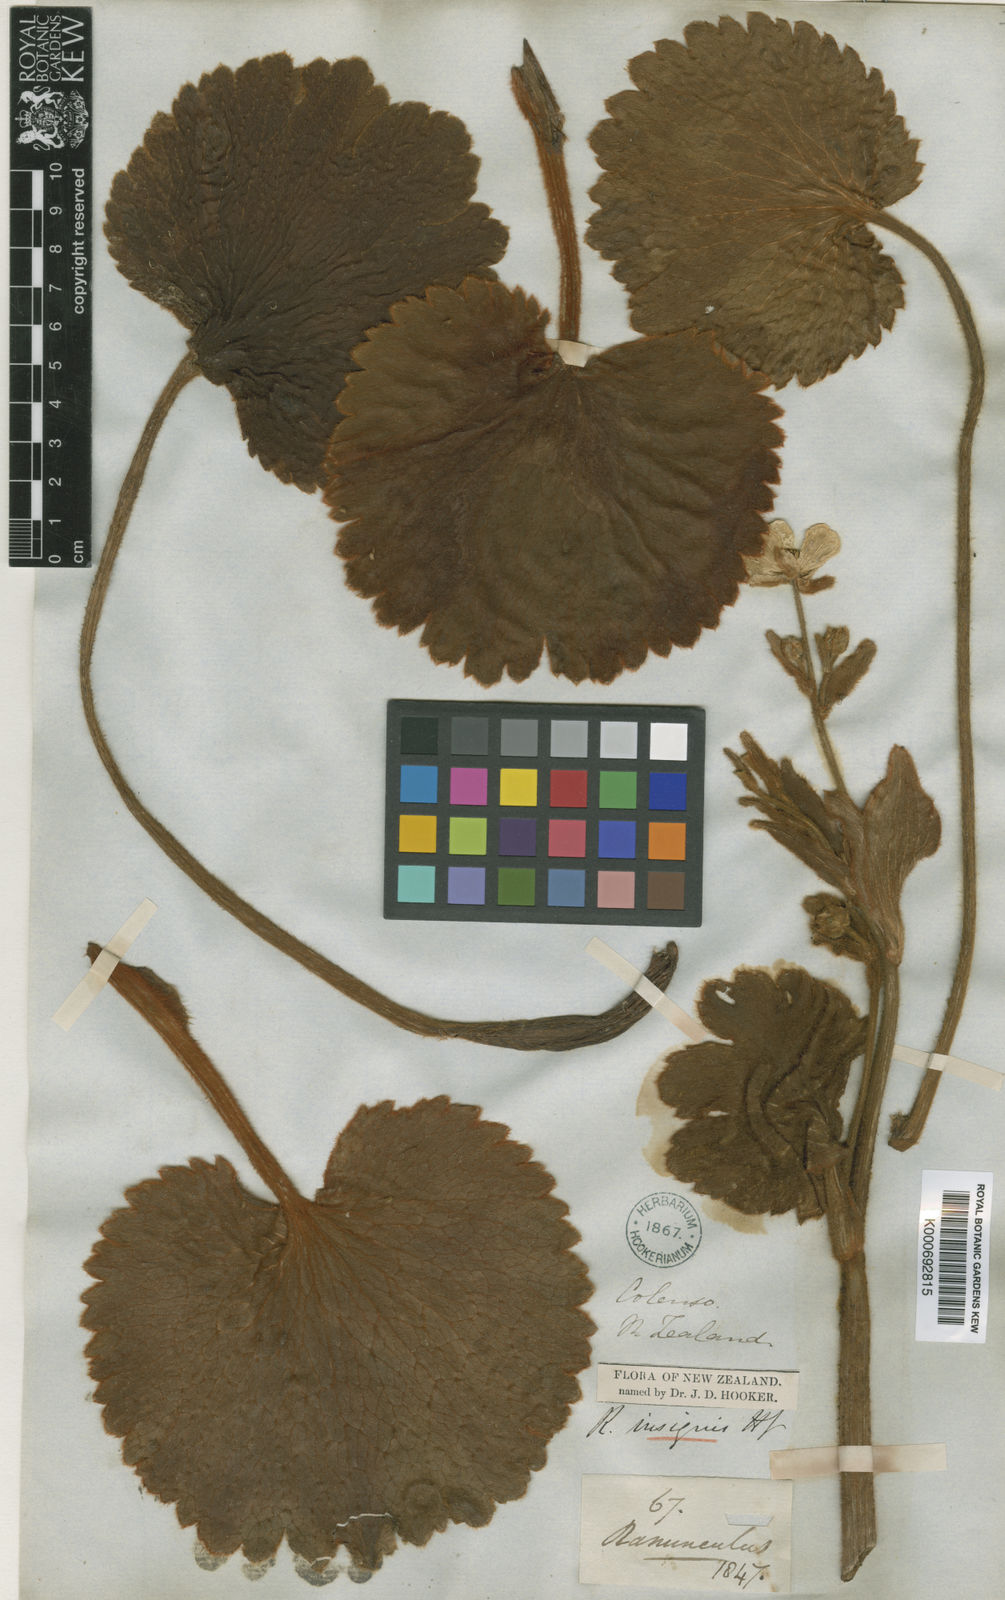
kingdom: Plantae
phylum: Tracheophyta
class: Magnoliopsida
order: Ranunculales
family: Ranunculaceae
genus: Ranunculus
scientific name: Ranunculus insignis
